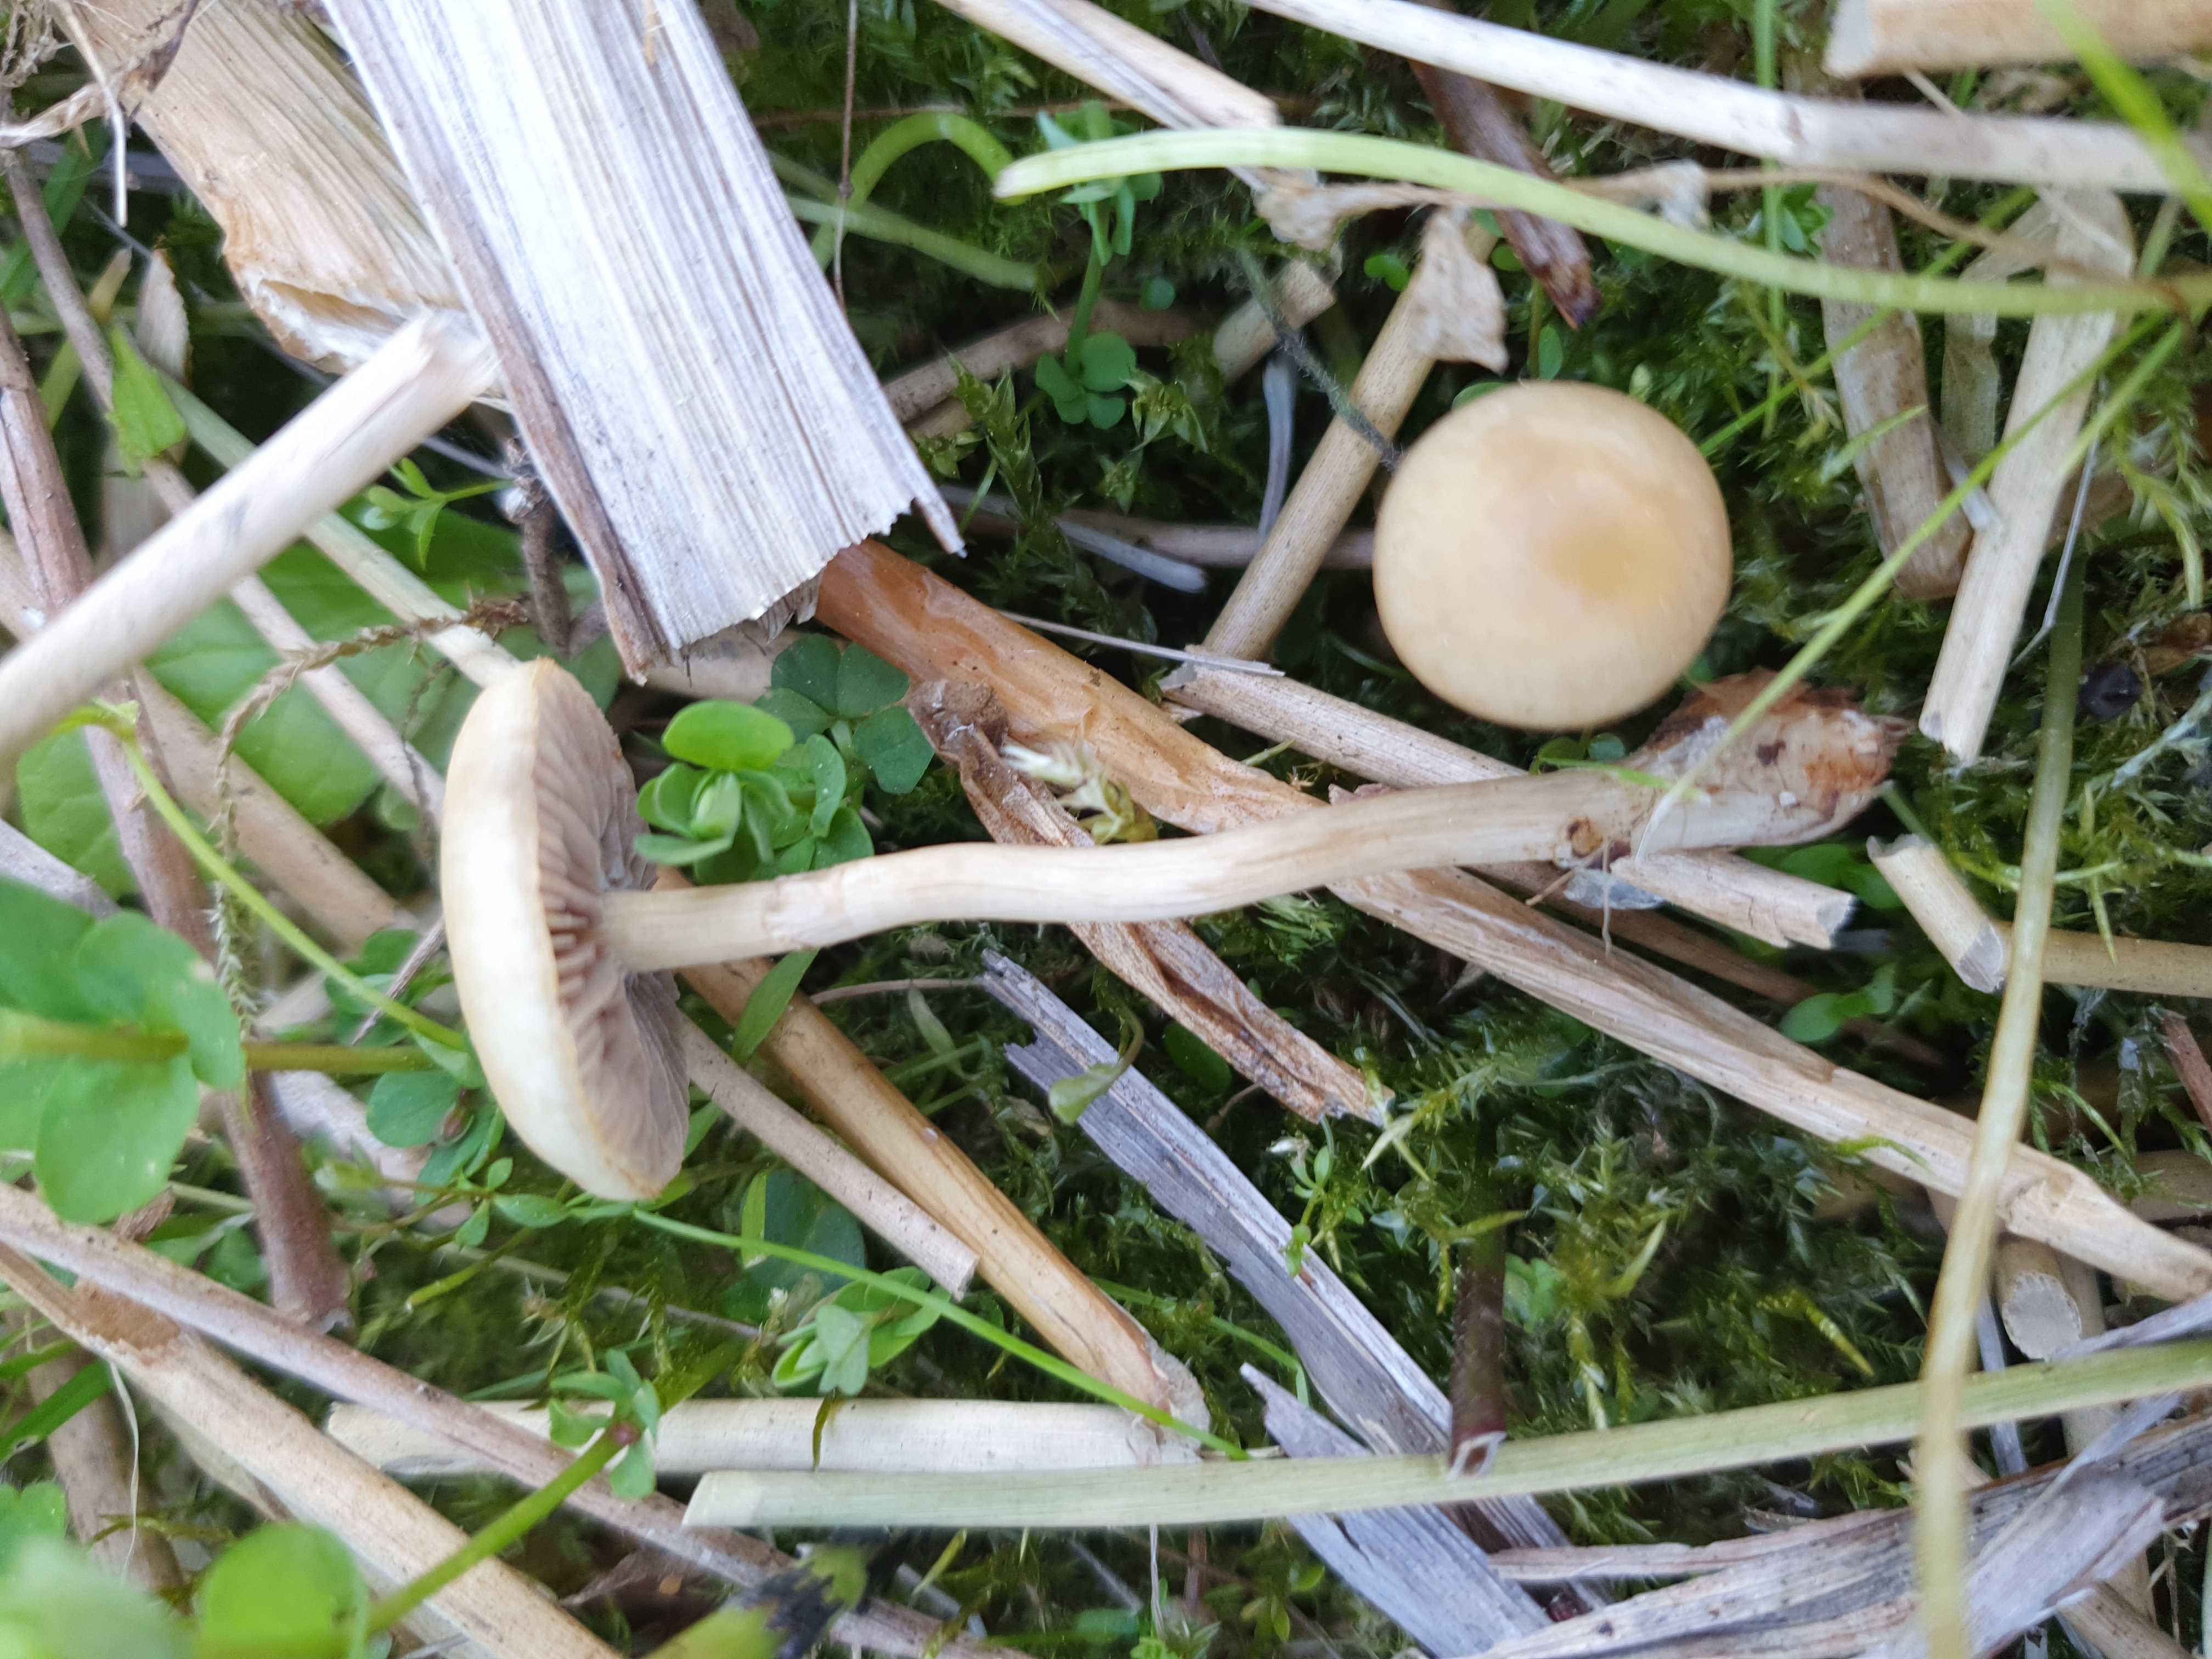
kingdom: Fungi
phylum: Basidiomycota
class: Agaricomycetes
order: Agaricales
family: Strophariaceae
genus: Agrocybe
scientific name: Agrocybe elatella
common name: mose-agerhat
